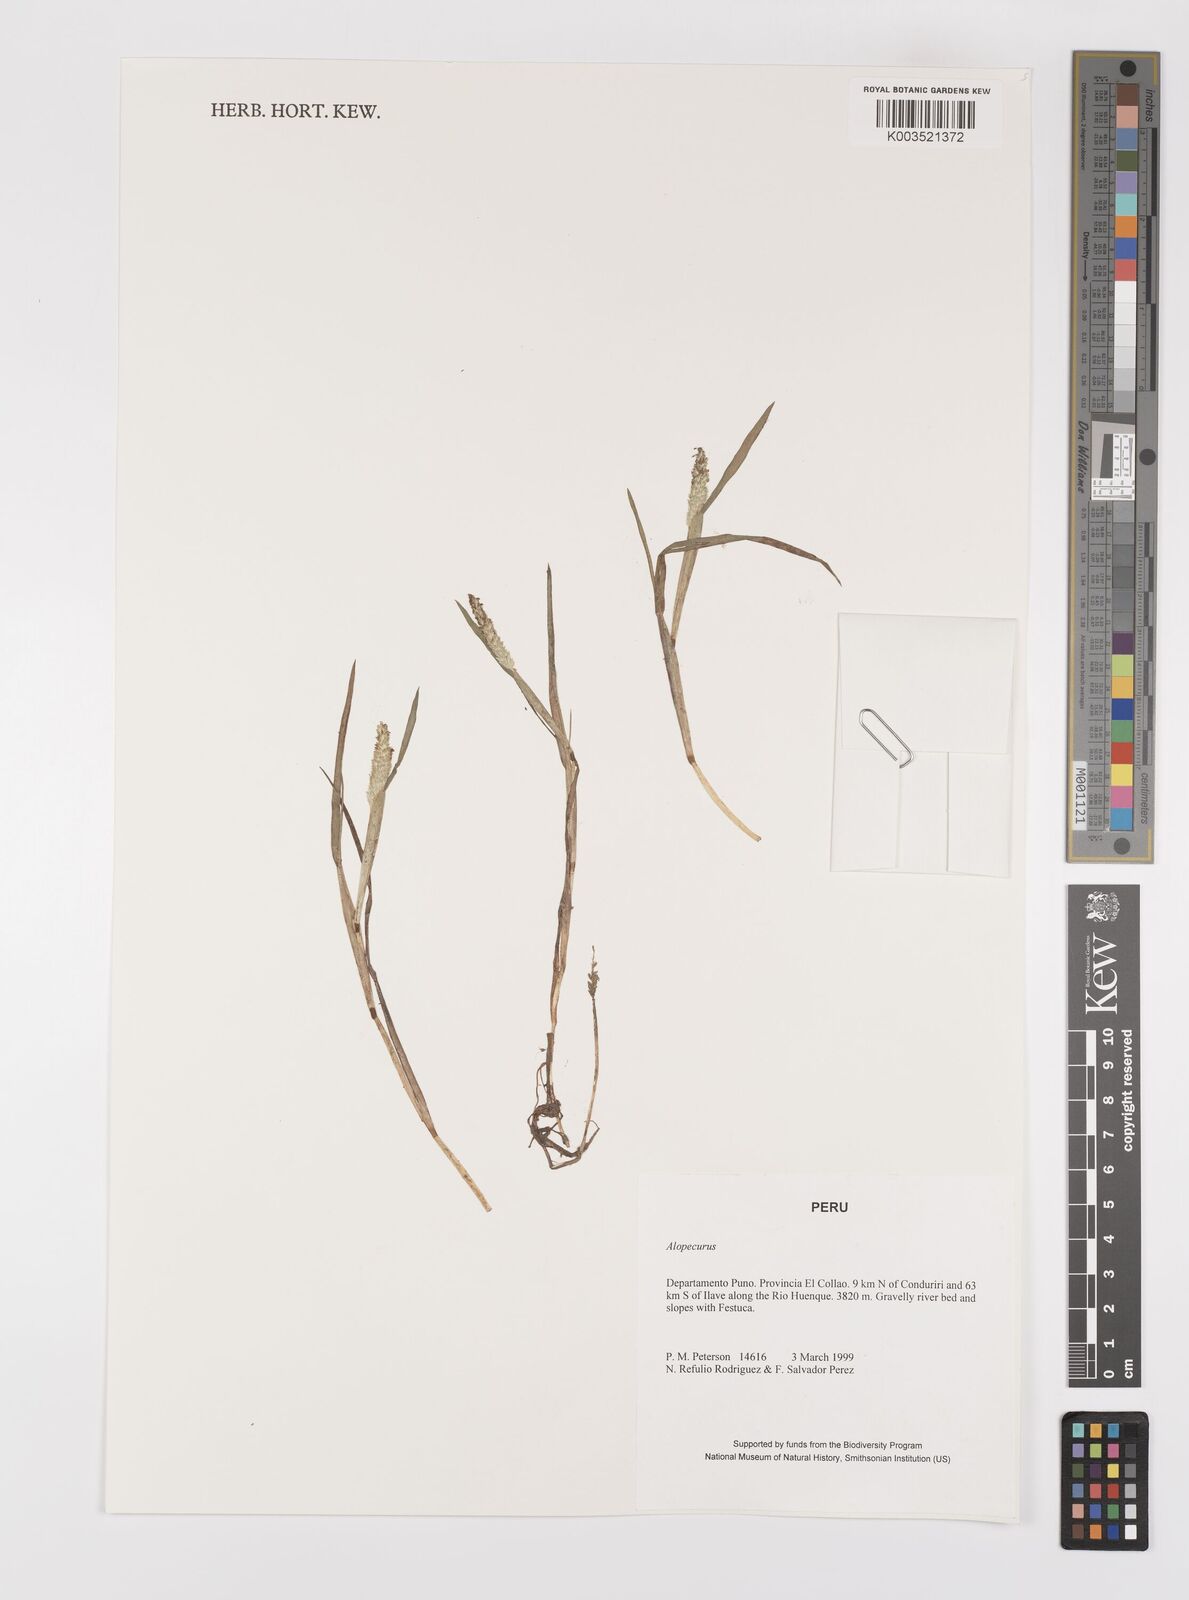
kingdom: Plantae
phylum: Tracheophyta
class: Liliopsida
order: Poales
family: Poaceae
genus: Alopecurus
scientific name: Alopecurus hitchcockii
